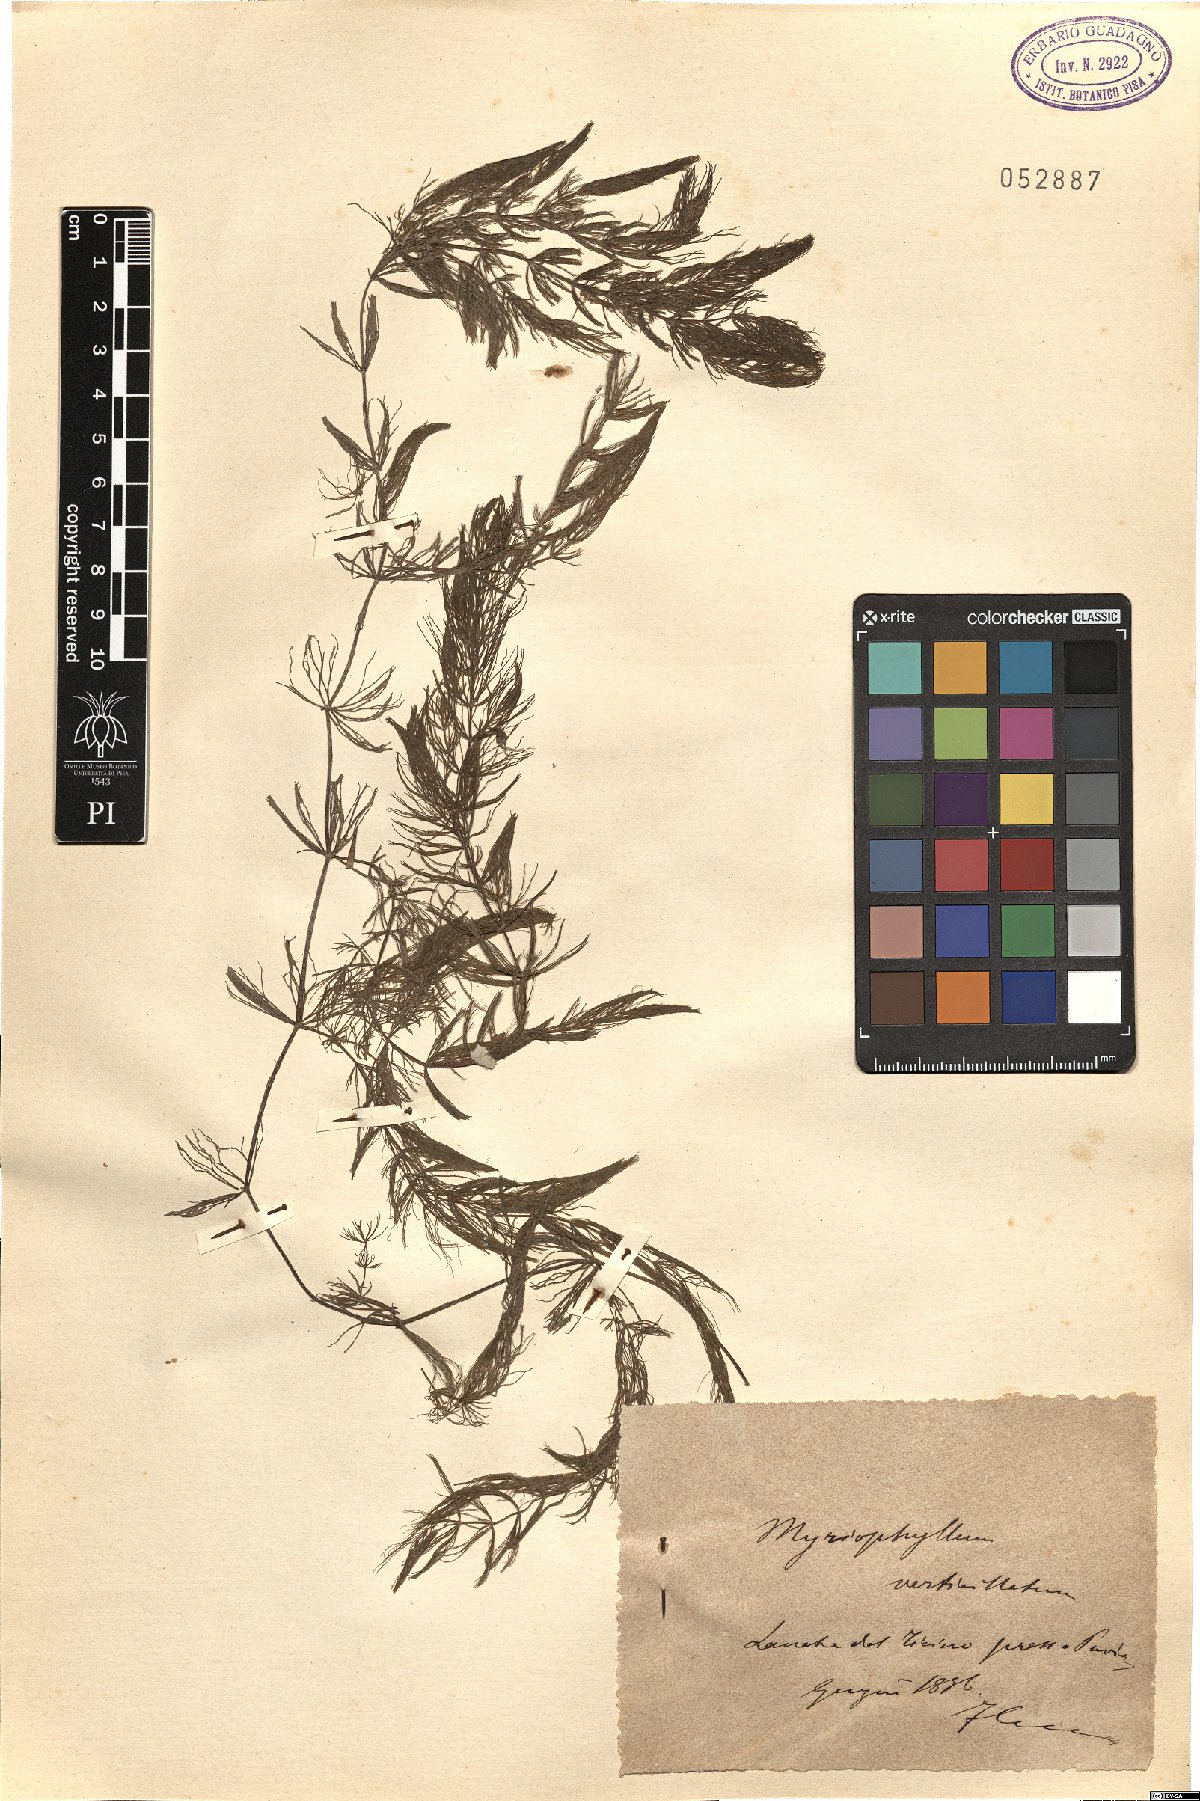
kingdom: Plantae
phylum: Tracheophyta
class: Magnoliopsida
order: Saxifragales
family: Haloragaceae
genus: Myriophyllum
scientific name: Myriophyllum verticillatum
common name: Whorled water-milfoil
